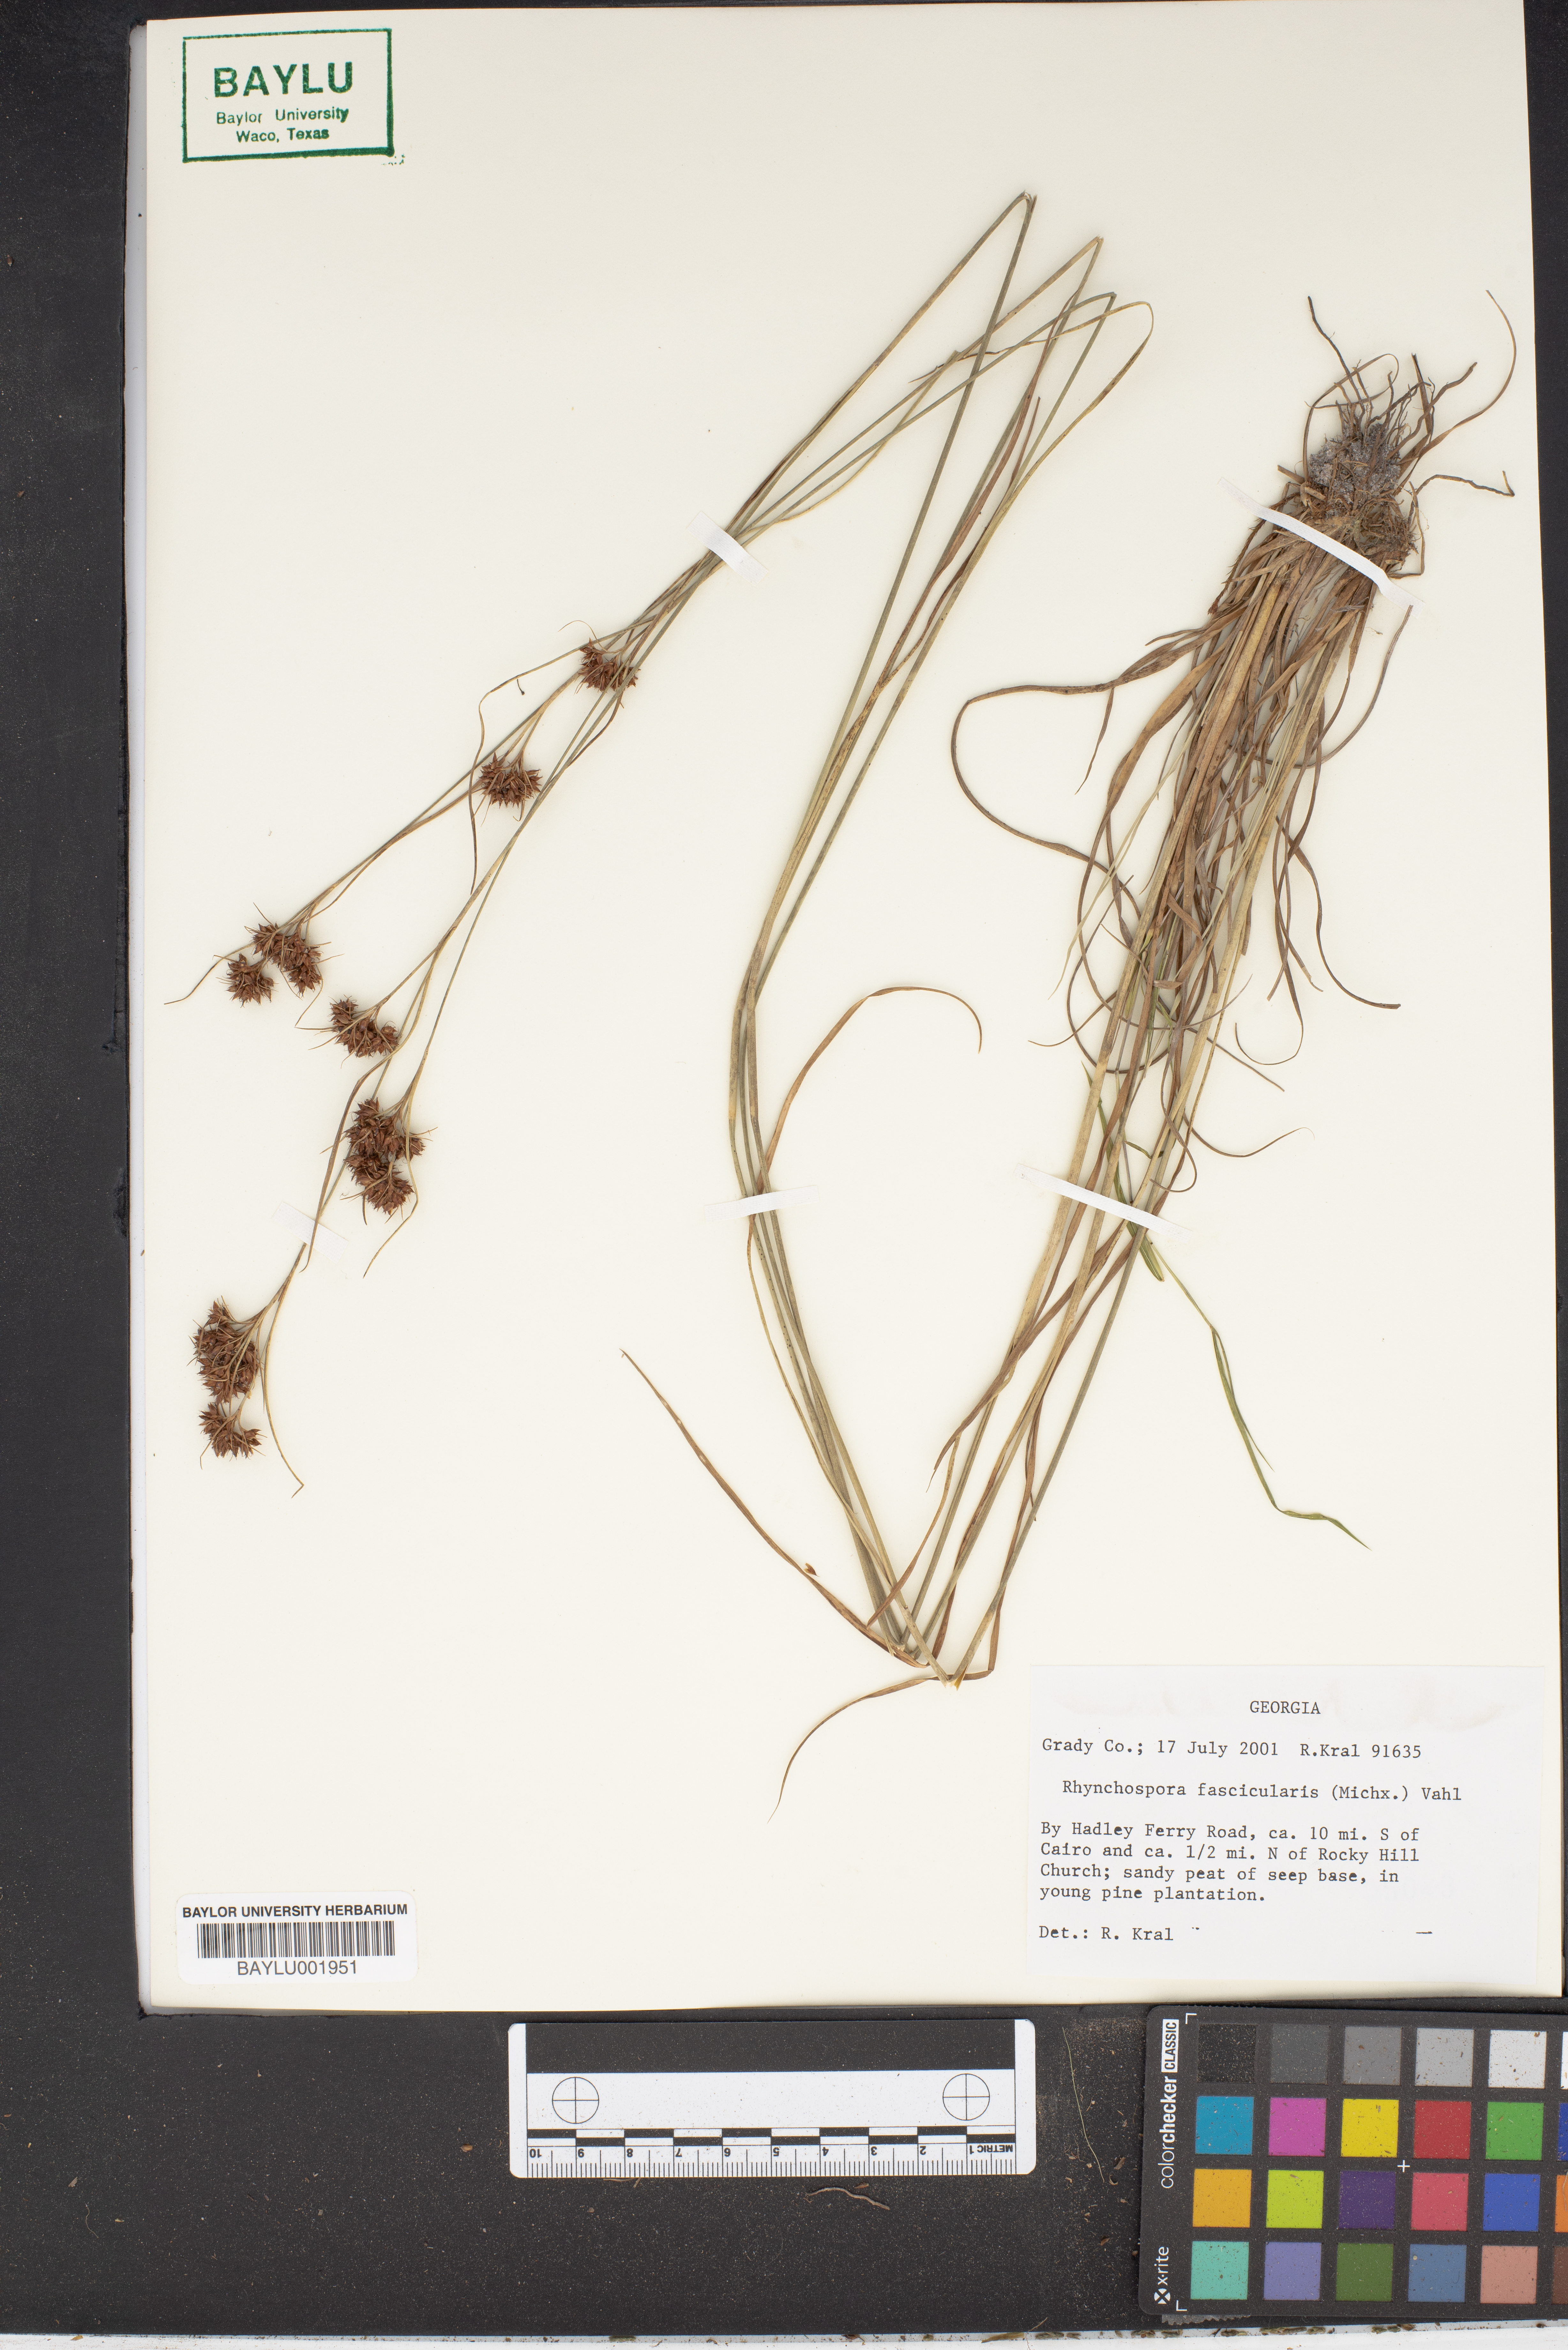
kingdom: Plantae
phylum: Tracheophyta
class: Liliopsida
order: Poales
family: Cyperaceae
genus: Rhynchospora
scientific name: Rhynchospora fascicularis
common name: Fascicled beak sedge
